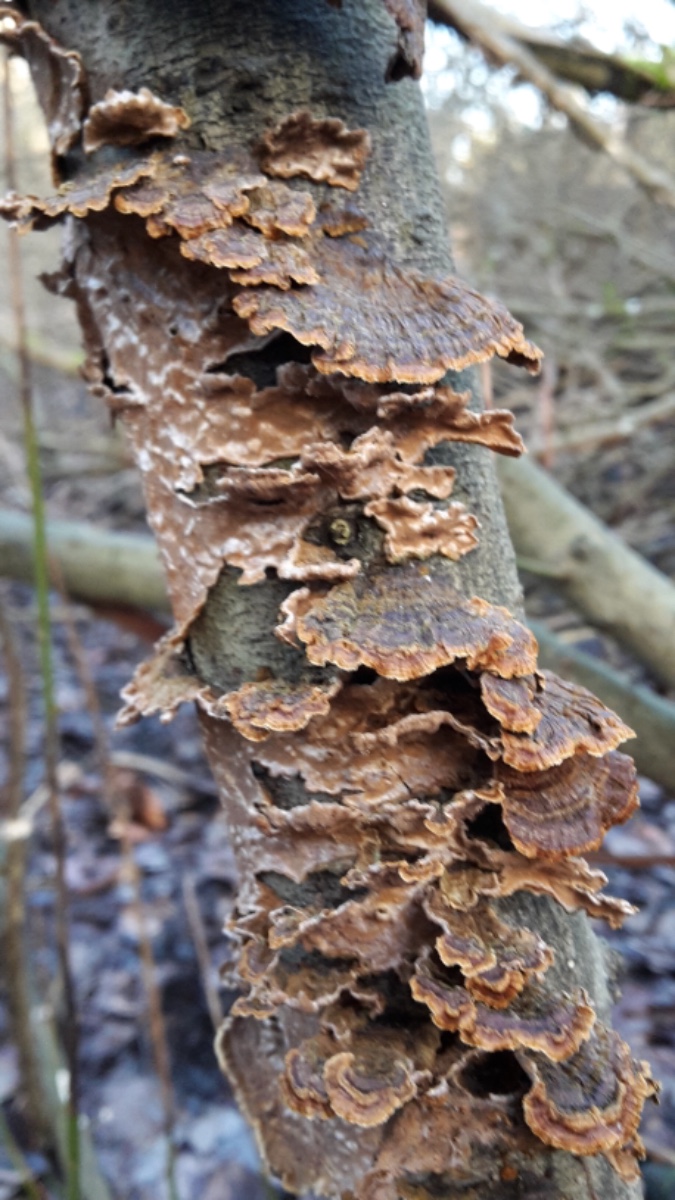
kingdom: Fungi
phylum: Basidiomycota
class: Agaricomycetes
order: Hymenochaetales
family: Hymenochaetaceae
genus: Hydnoporia
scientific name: Hydnoporia tabacina
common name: tobaksbrun ruslædersvamp
